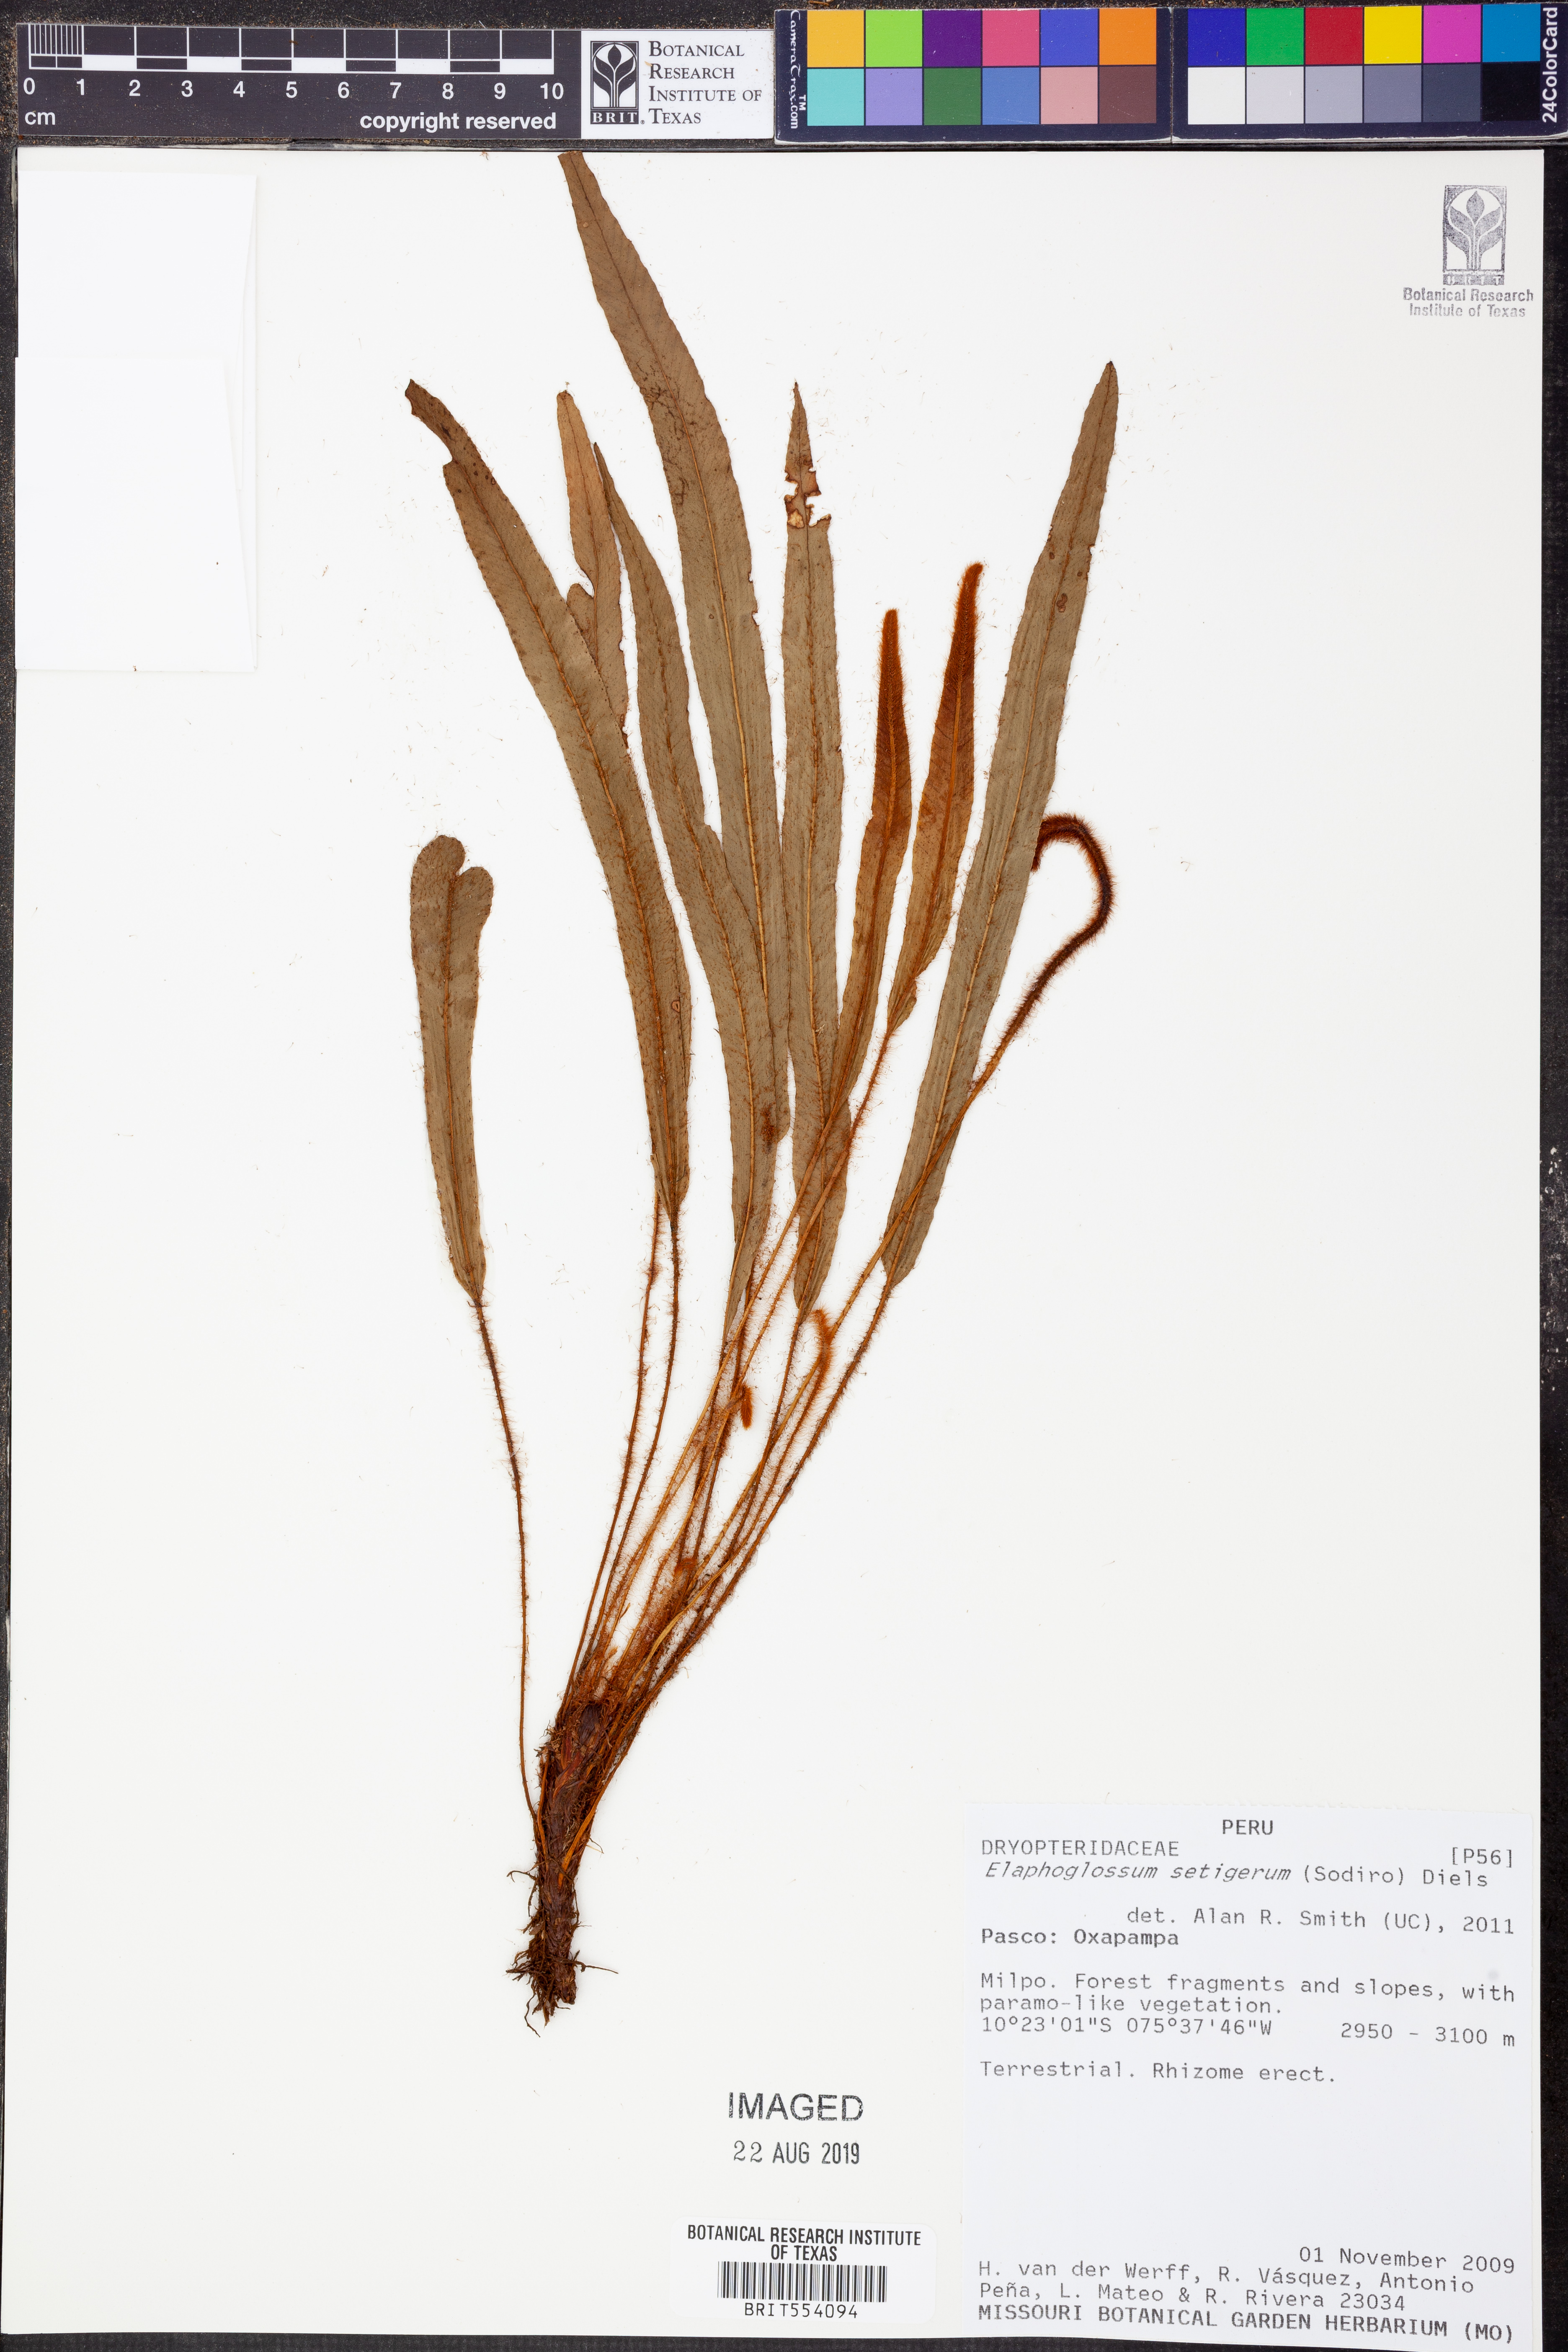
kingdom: Plantae
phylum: Tracheophyta
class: Polypodiopsida
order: Polypodiales
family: Dryopteridaceae
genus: Elaphoglossum
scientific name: Elaphoglossum setigerum
